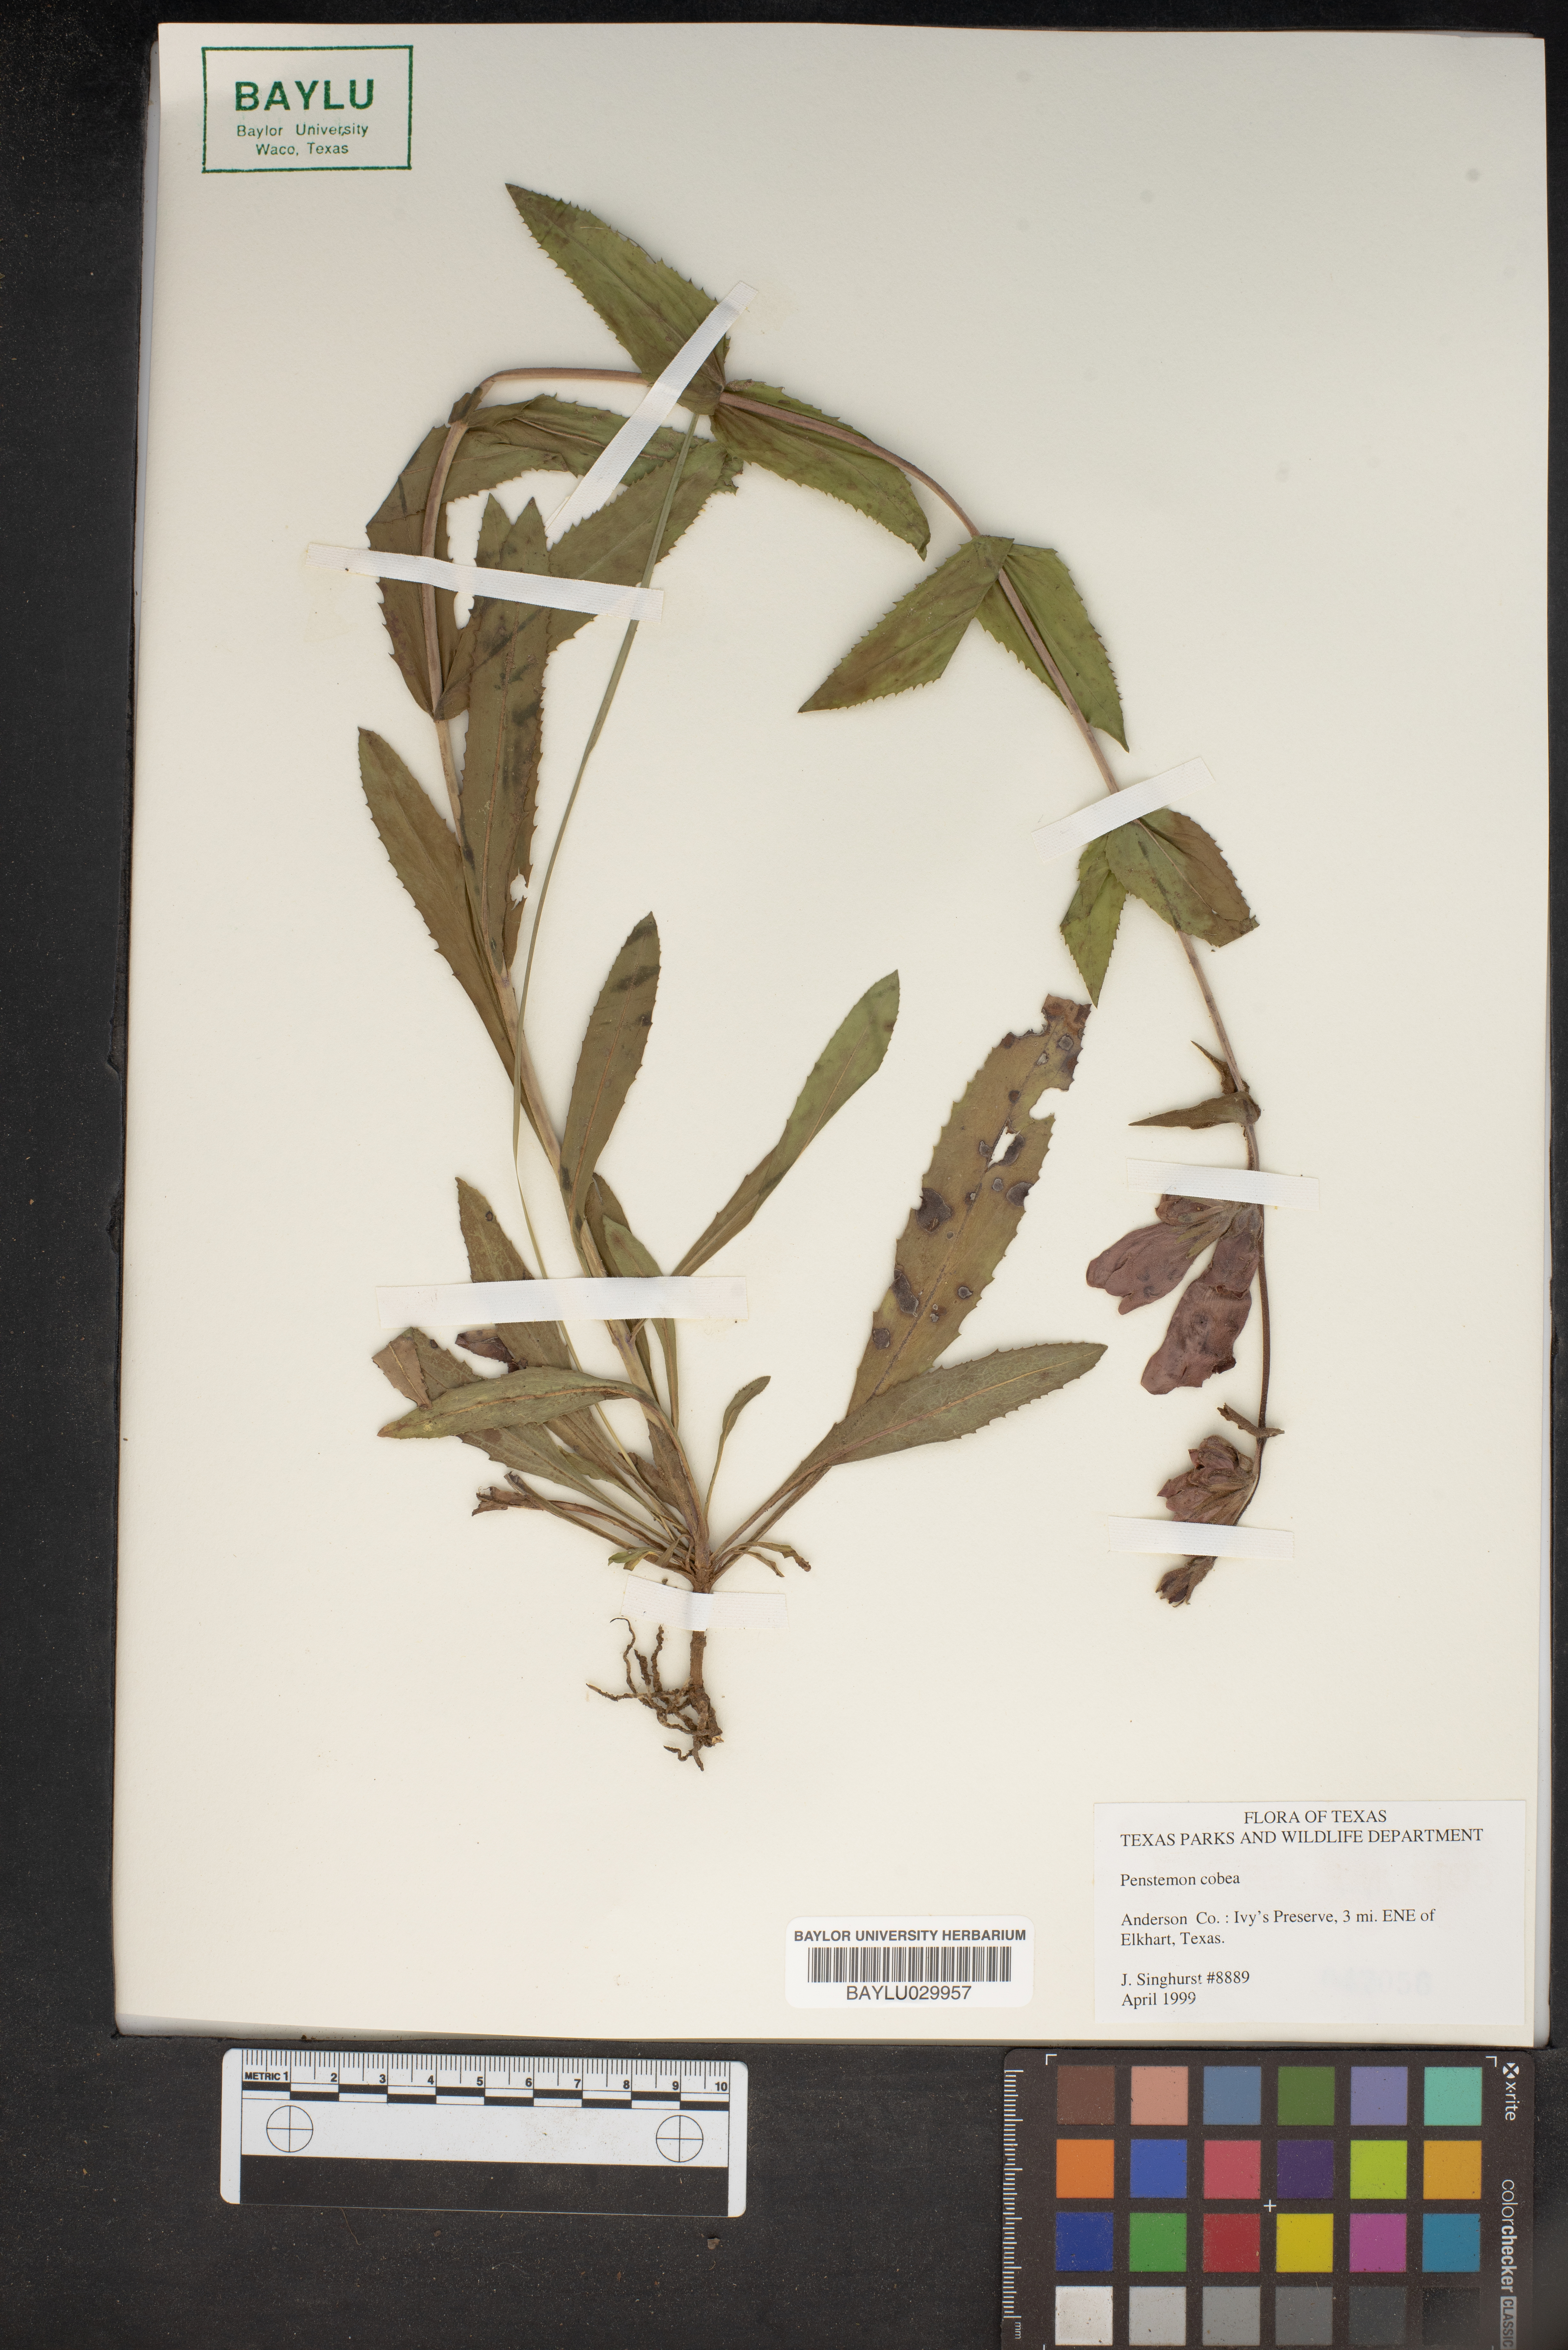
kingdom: Plantae
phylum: Tracheophyta
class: Magnoliopsida
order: Lamiales
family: Plantaginaceae
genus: Penstemon
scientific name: Penstemon cobaea
